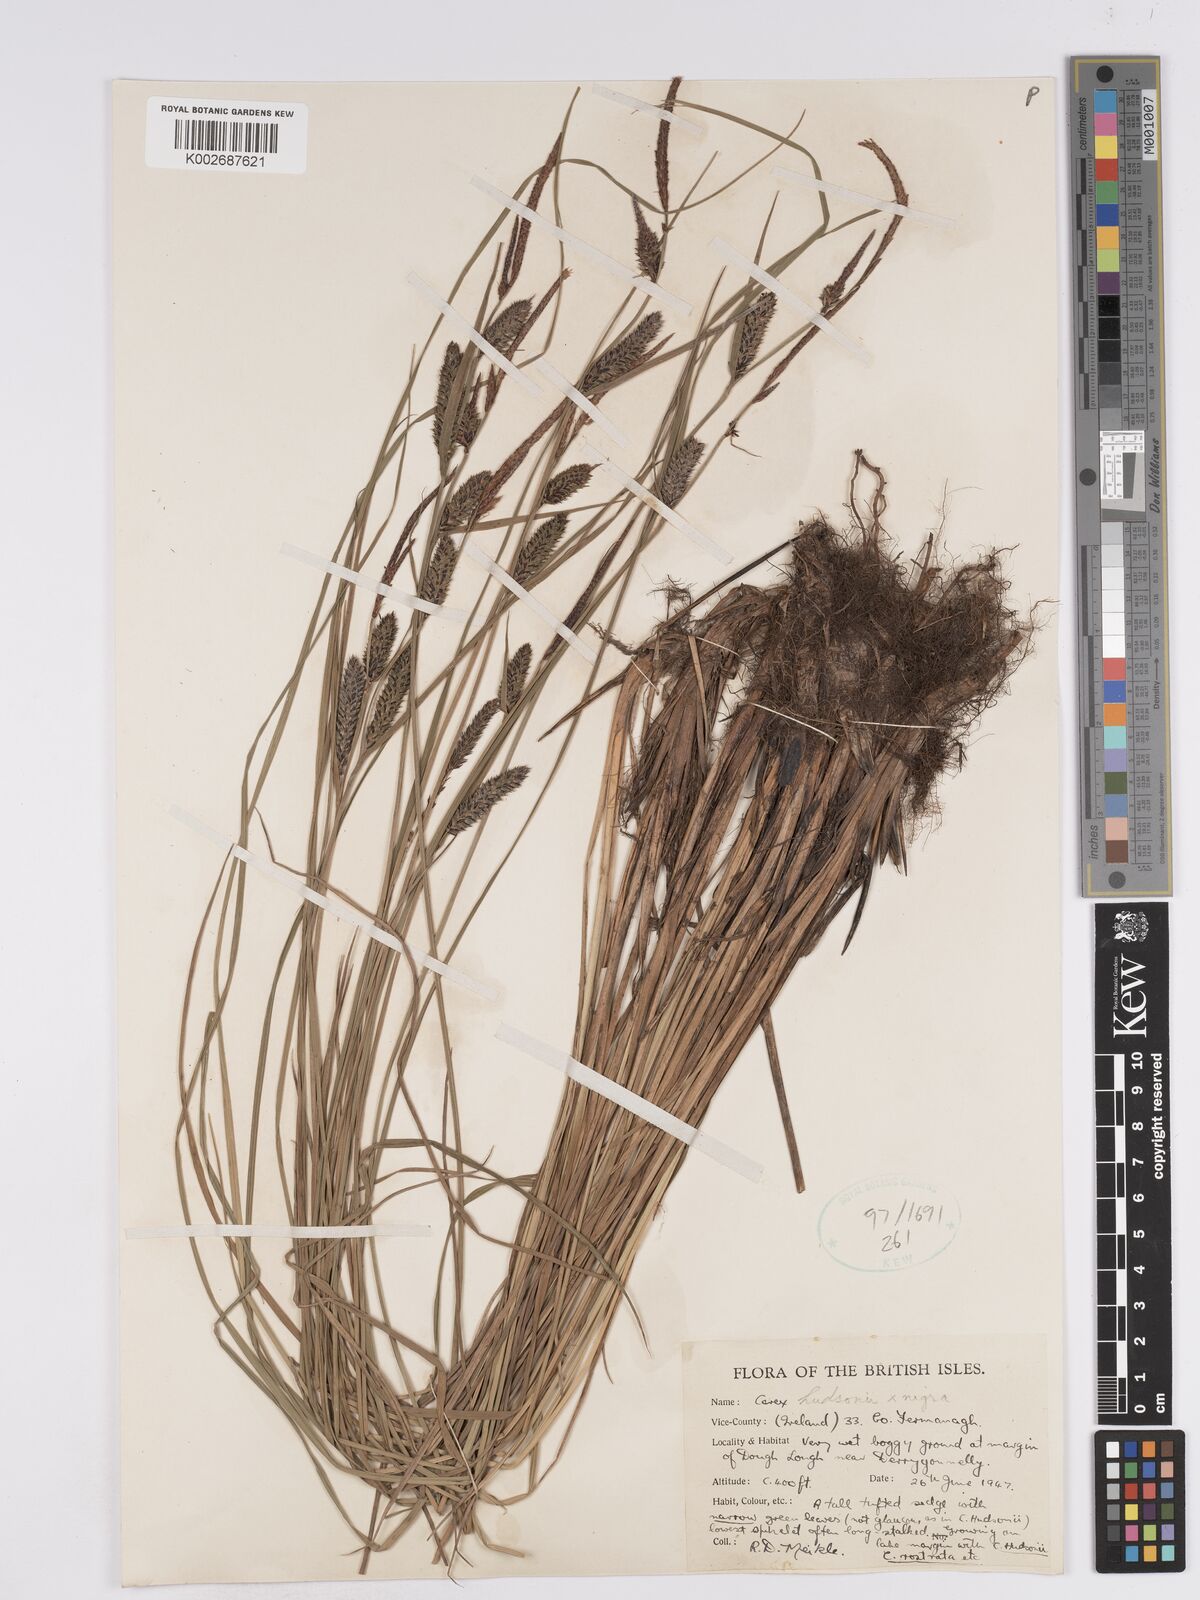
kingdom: Plantae
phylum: Tracheophyta
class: Liliopsida
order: Poales
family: Cyperaceae
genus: Carex
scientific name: Carex
